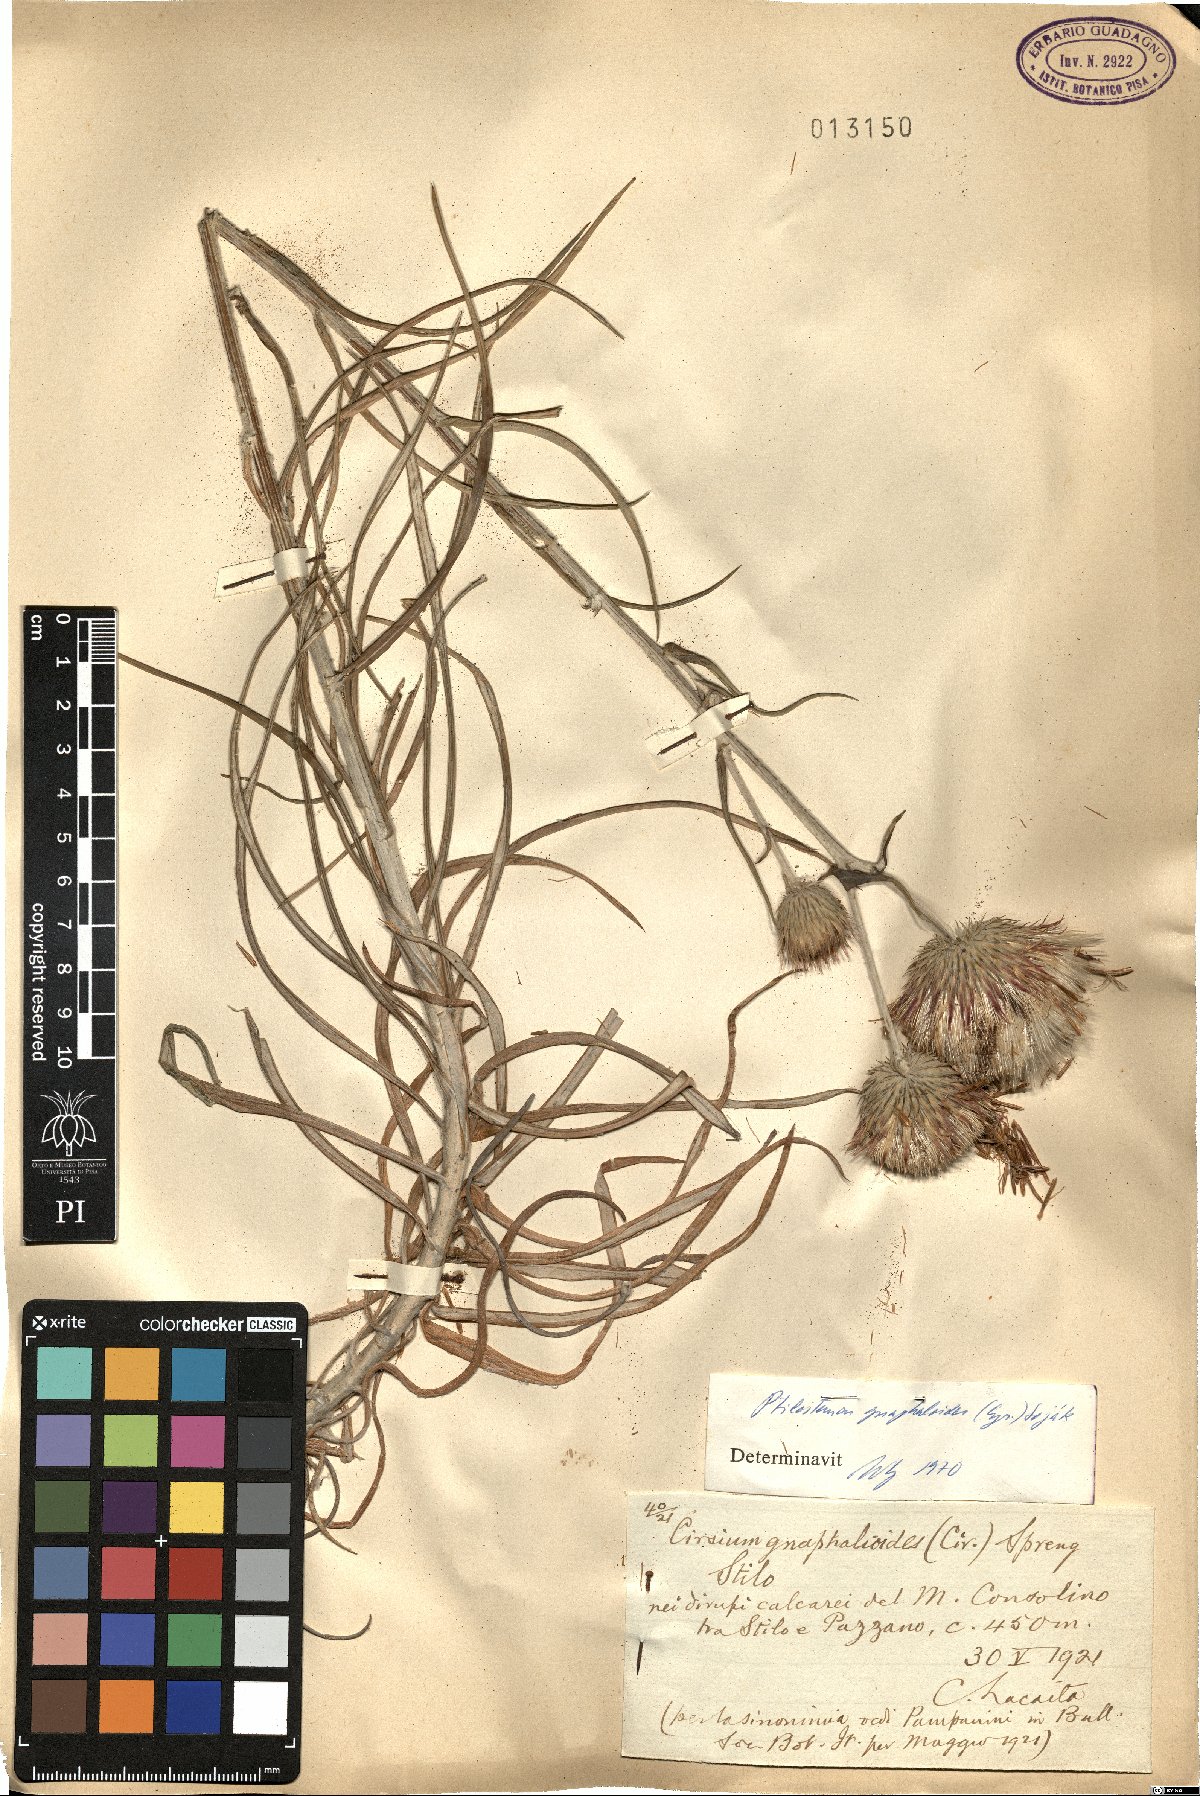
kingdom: Plantae
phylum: Tracheophyta
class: Magnoliopsida
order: Asterales
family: Asteraceae
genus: Ptilostemon
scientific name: Ptilostemon gnaphaloides
